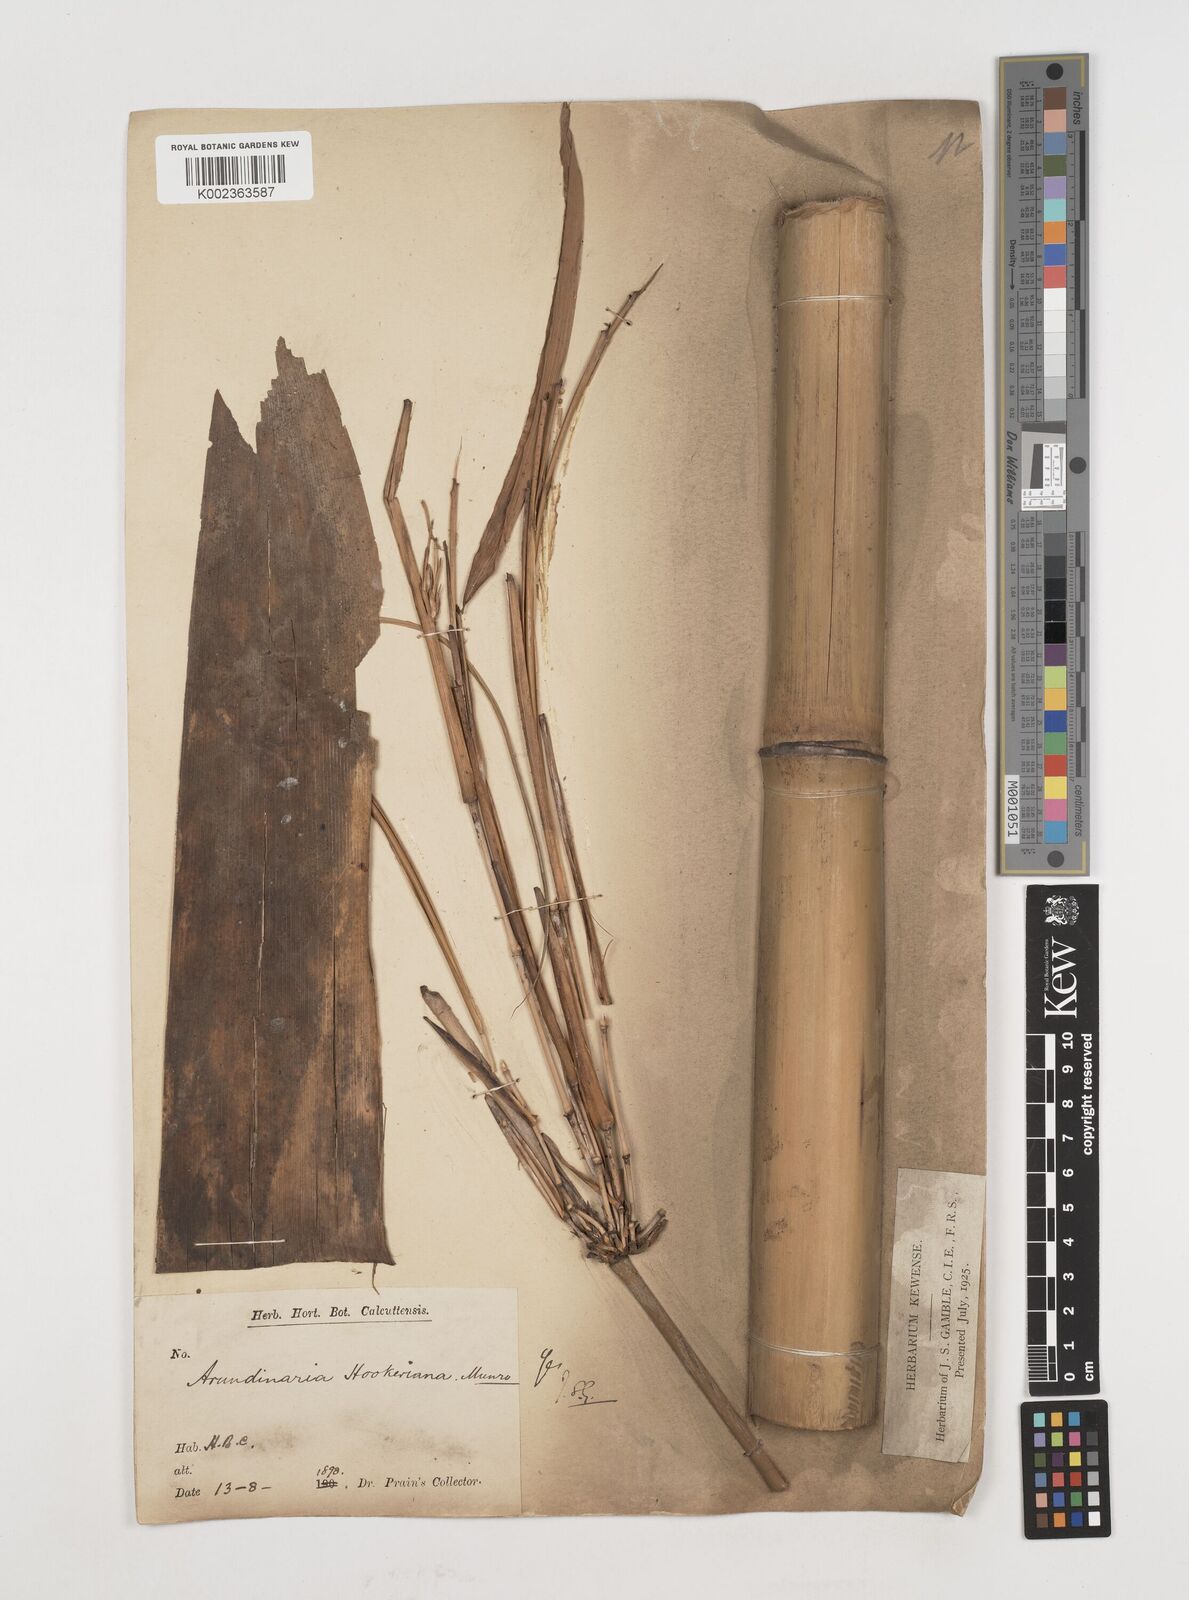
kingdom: Plantae
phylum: Tracheophyta
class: Liliopsida
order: Poales
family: Poaceae
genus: Himalayacalamus
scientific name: Himalayacalamus hookerianus
